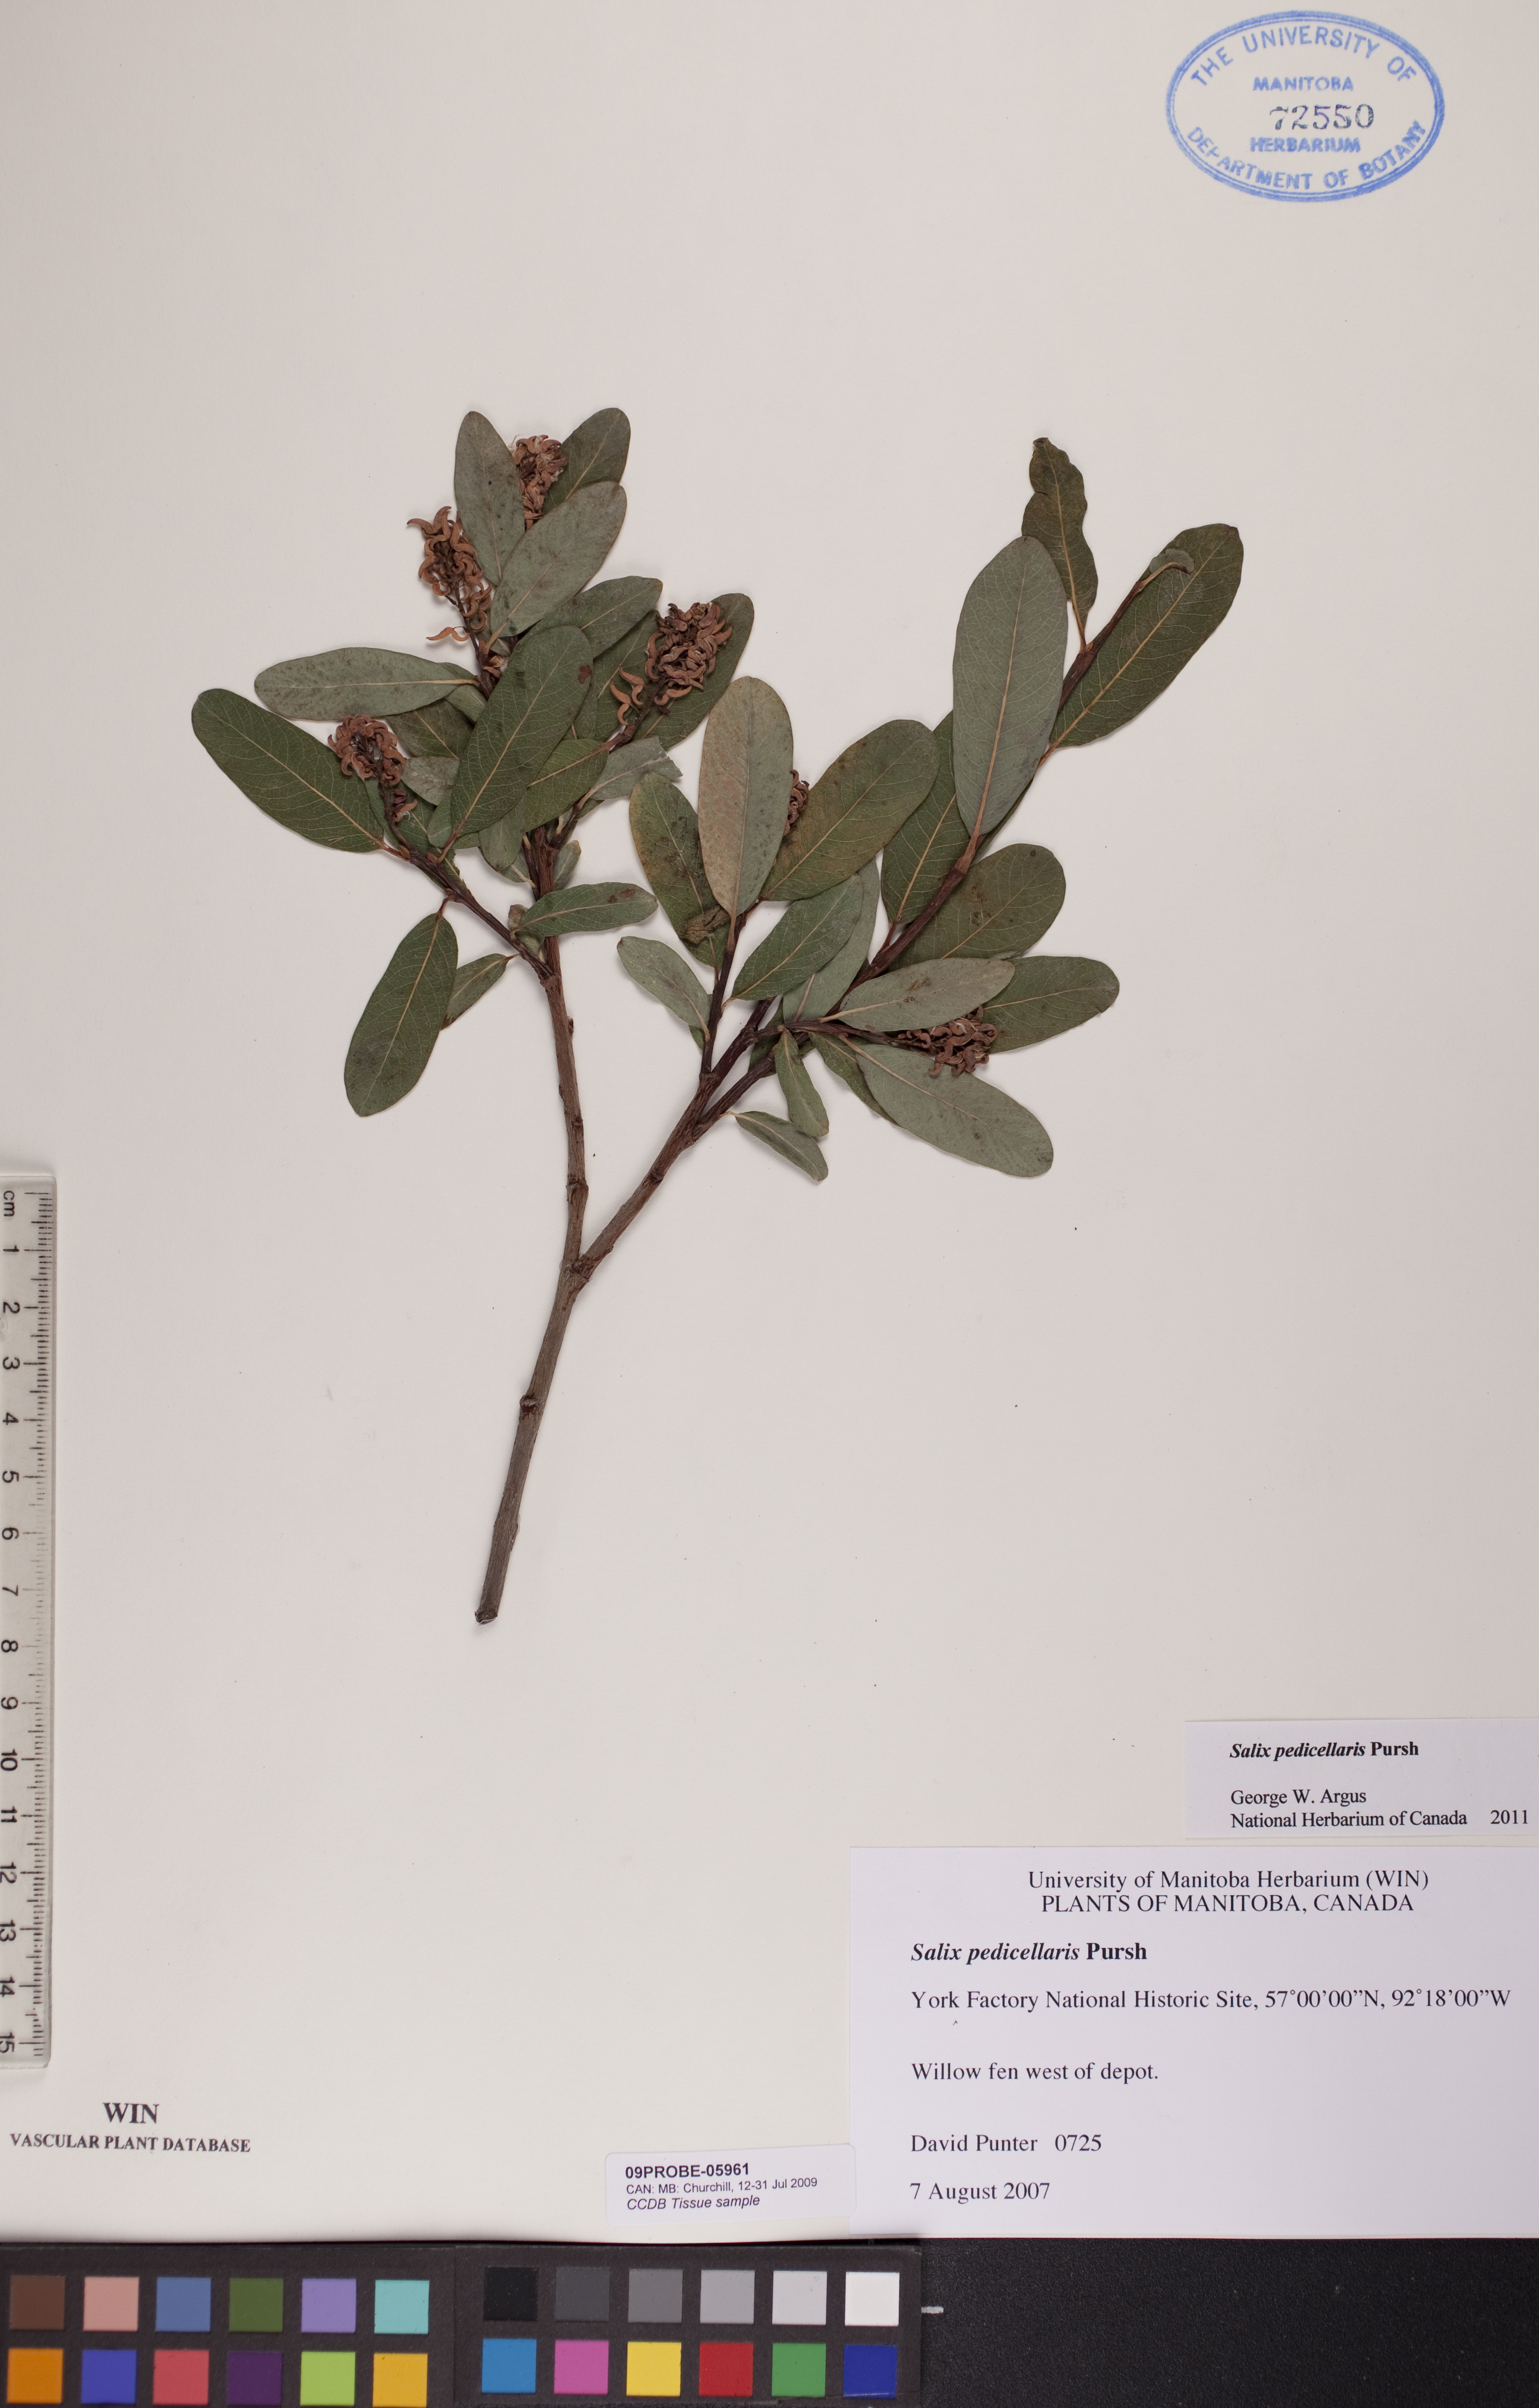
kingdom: Plantae
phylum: Tracheophyta
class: Magnoliopsida
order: Malpighiales
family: Salicaceae
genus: Salix
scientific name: Salix pedicellaris
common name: Bog willow
